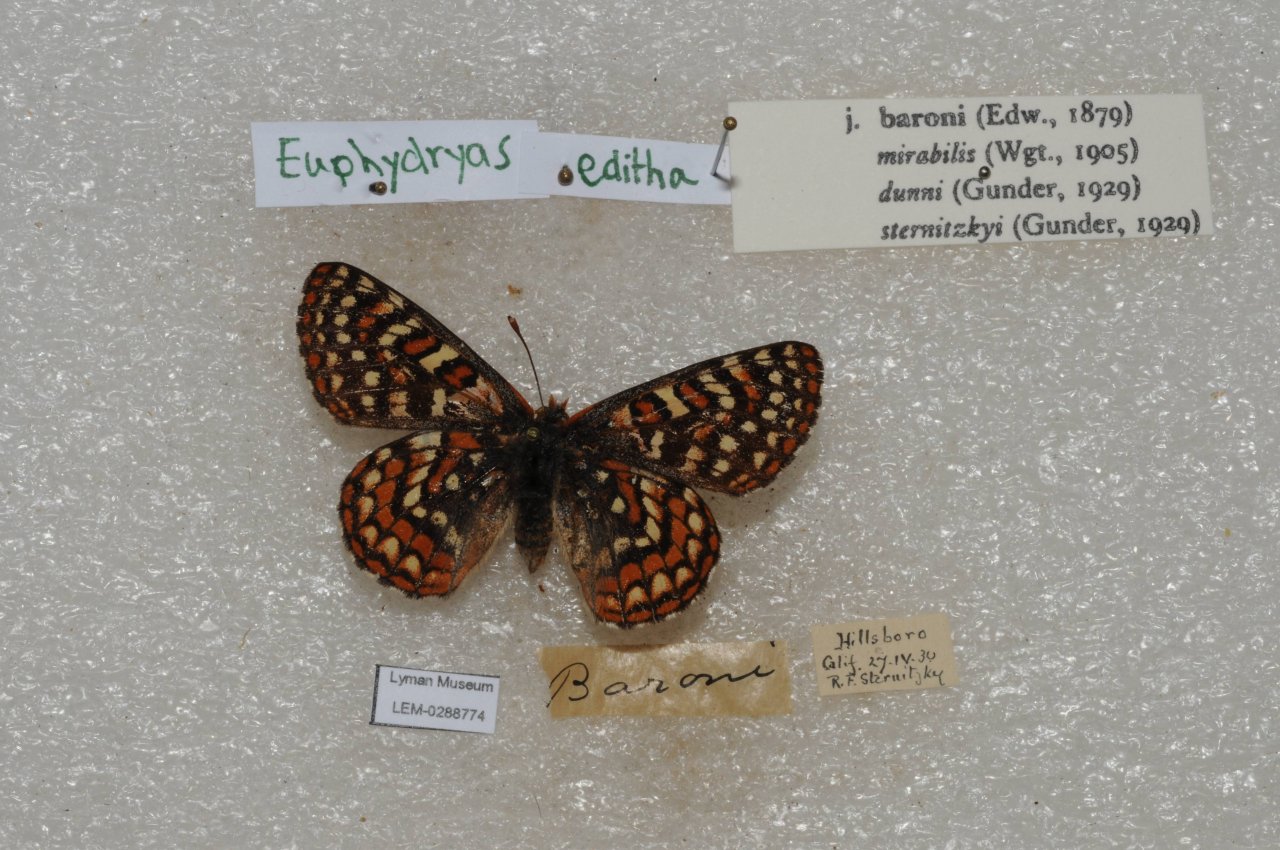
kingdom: Animalia
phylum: Arthropoda
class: Insecta
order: Lepidoptera
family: Nymphalidae
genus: Occidryas
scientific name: Occidryas editha
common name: Edith's Checkerspot
